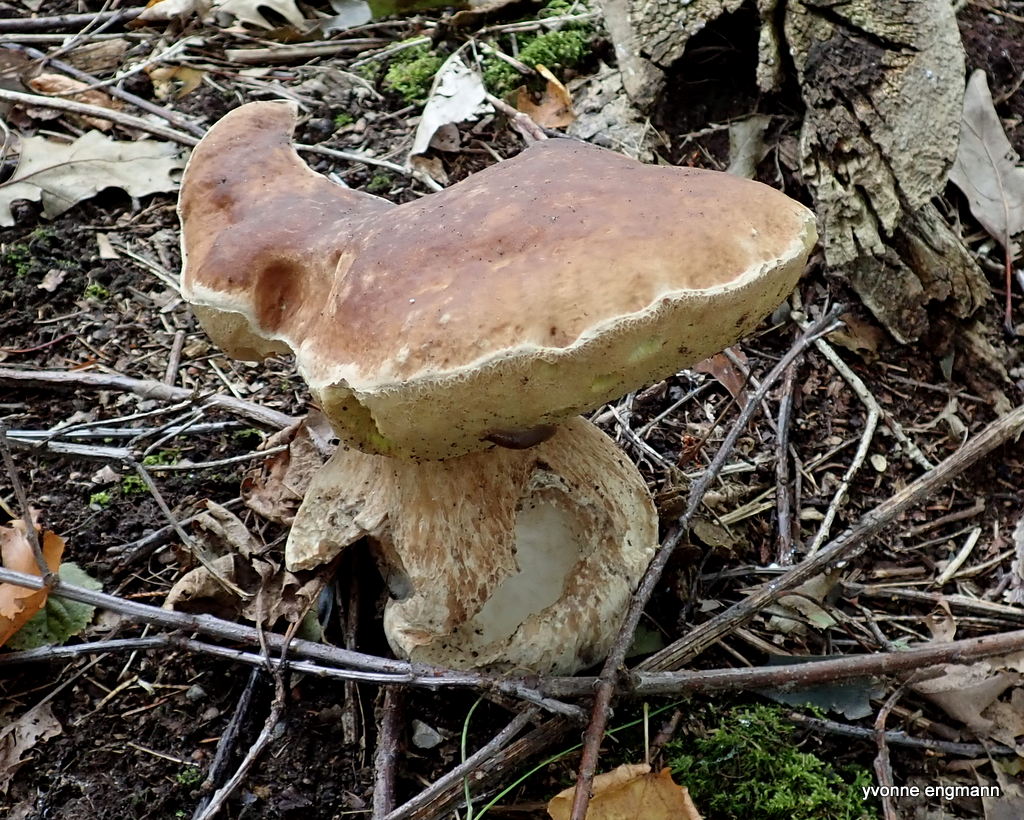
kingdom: Fungi
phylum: Basidiomycota
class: Agaricomycetes
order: Boletales
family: Boletaceae
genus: Boletus
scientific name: Boletus edulis
